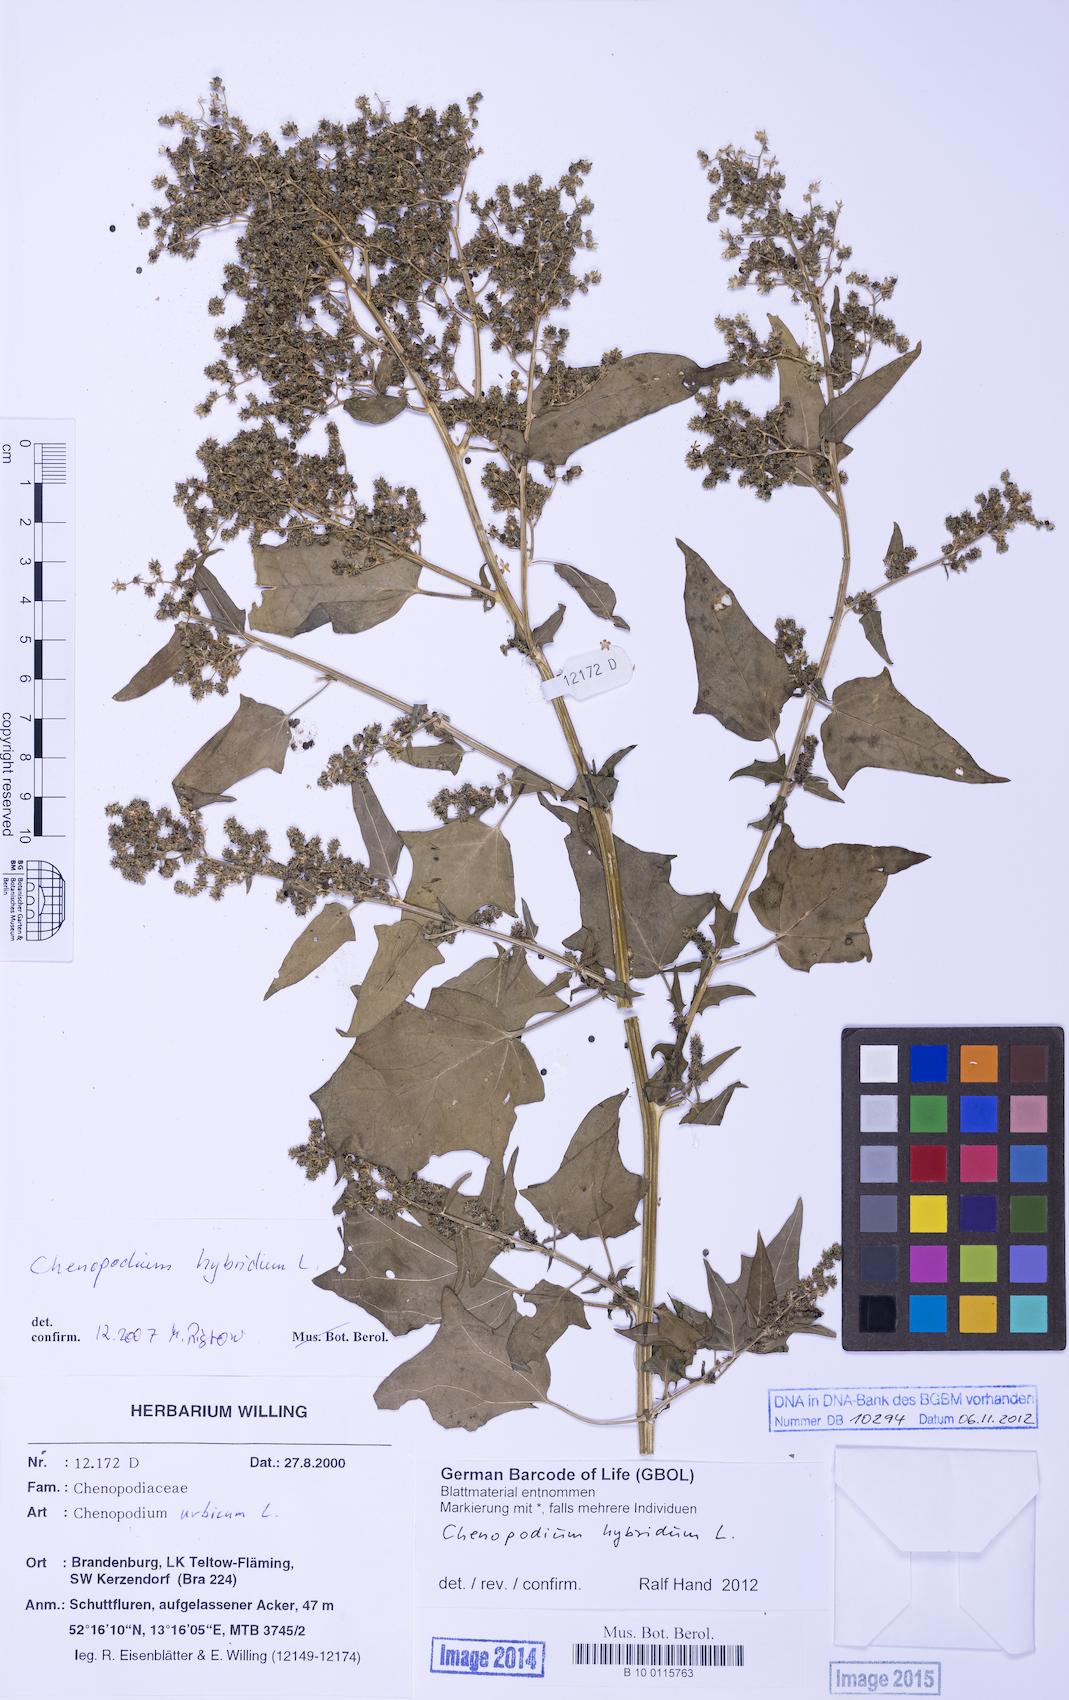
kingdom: Plantae
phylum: Tracheophyta
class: Magnoliopsida
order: Caryophyllales
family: Amaranthaceae
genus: Chenopodiastrum
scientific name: Chenopodiastrum hybridum
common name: Mapleleaf goosefoot
